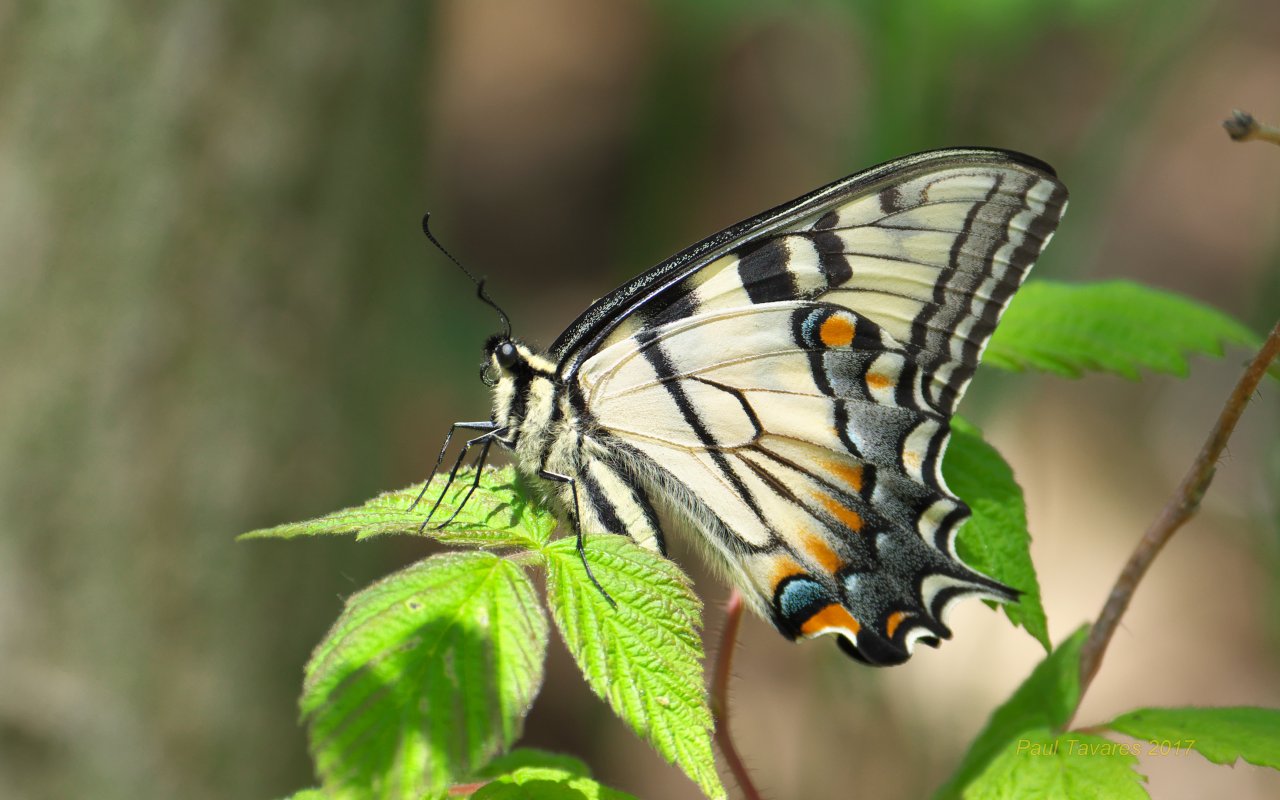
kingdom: Animalia
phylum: Arthropoda
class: Insecta
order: Lepidoptera
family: Papilionidae
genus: Pterourus
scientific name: Pterourus glaucus
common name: Eastern Tiger Swallowtail
